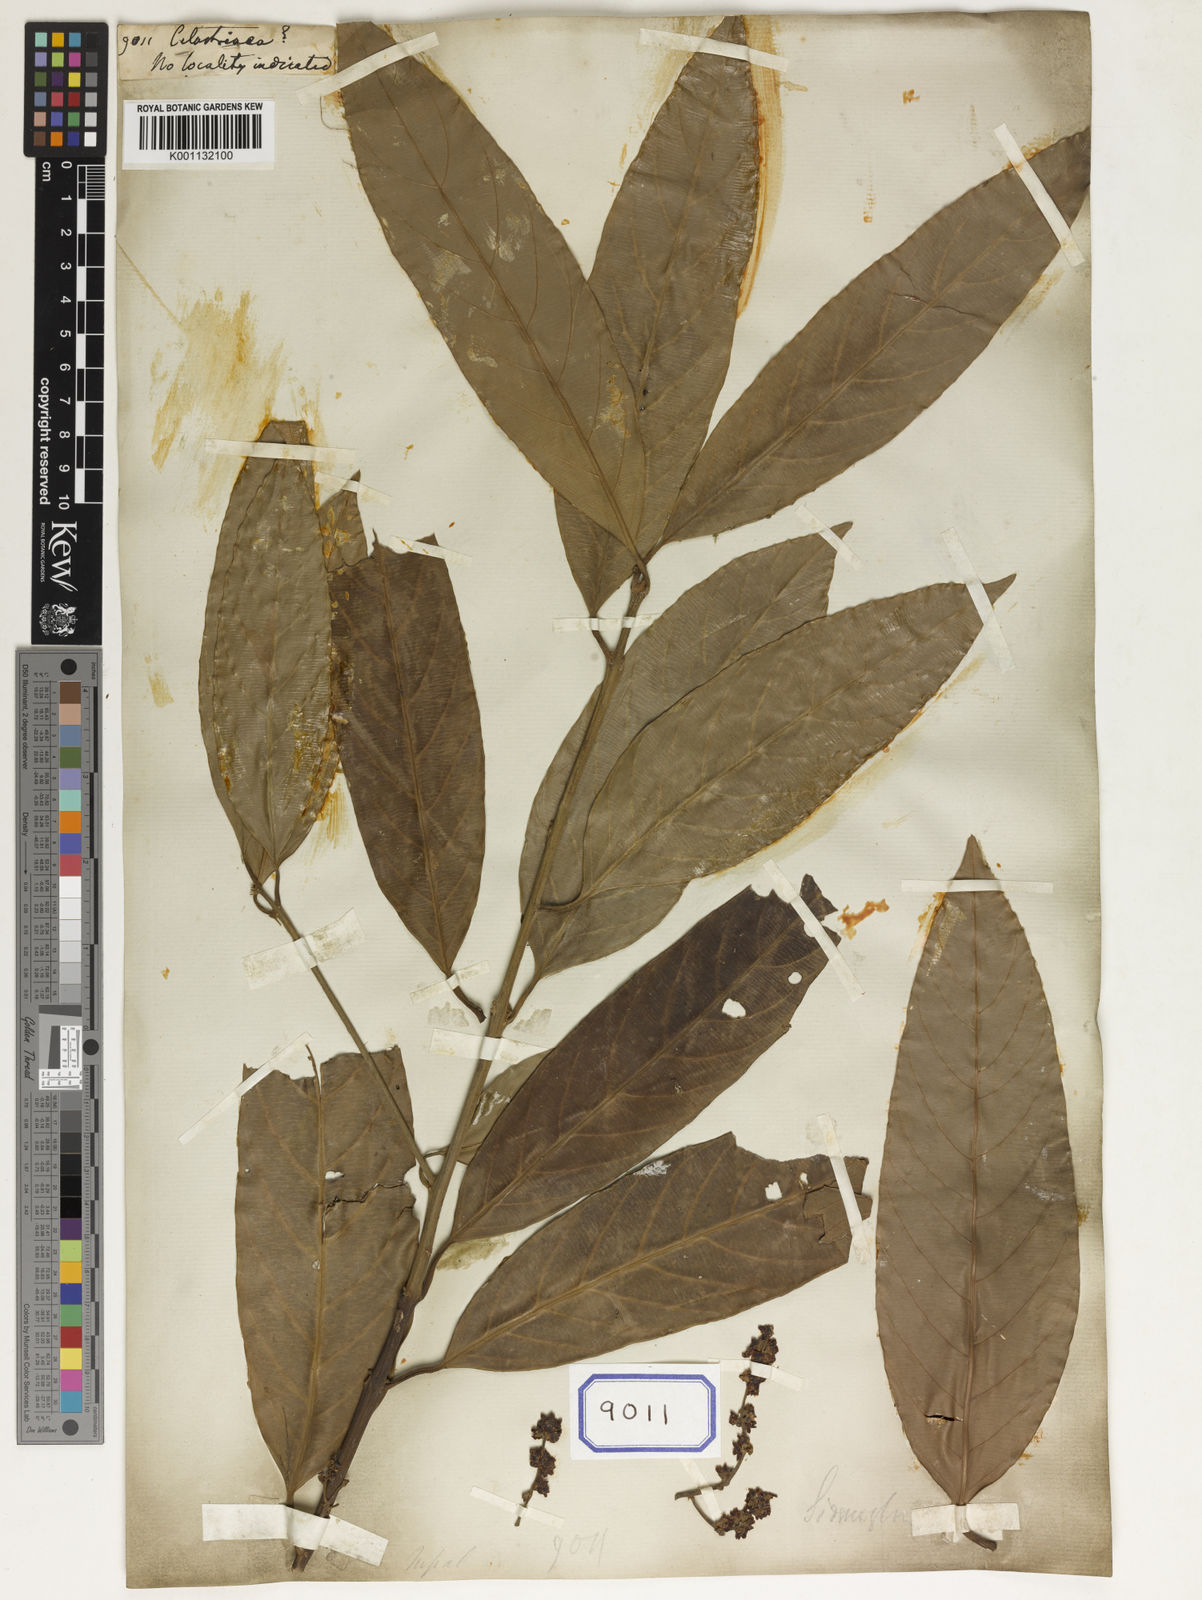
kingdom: Plantae
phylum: Tracheophyta
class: Magnoliopsida
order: Celastrales
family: Celastraceae
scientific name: Celastraceae
